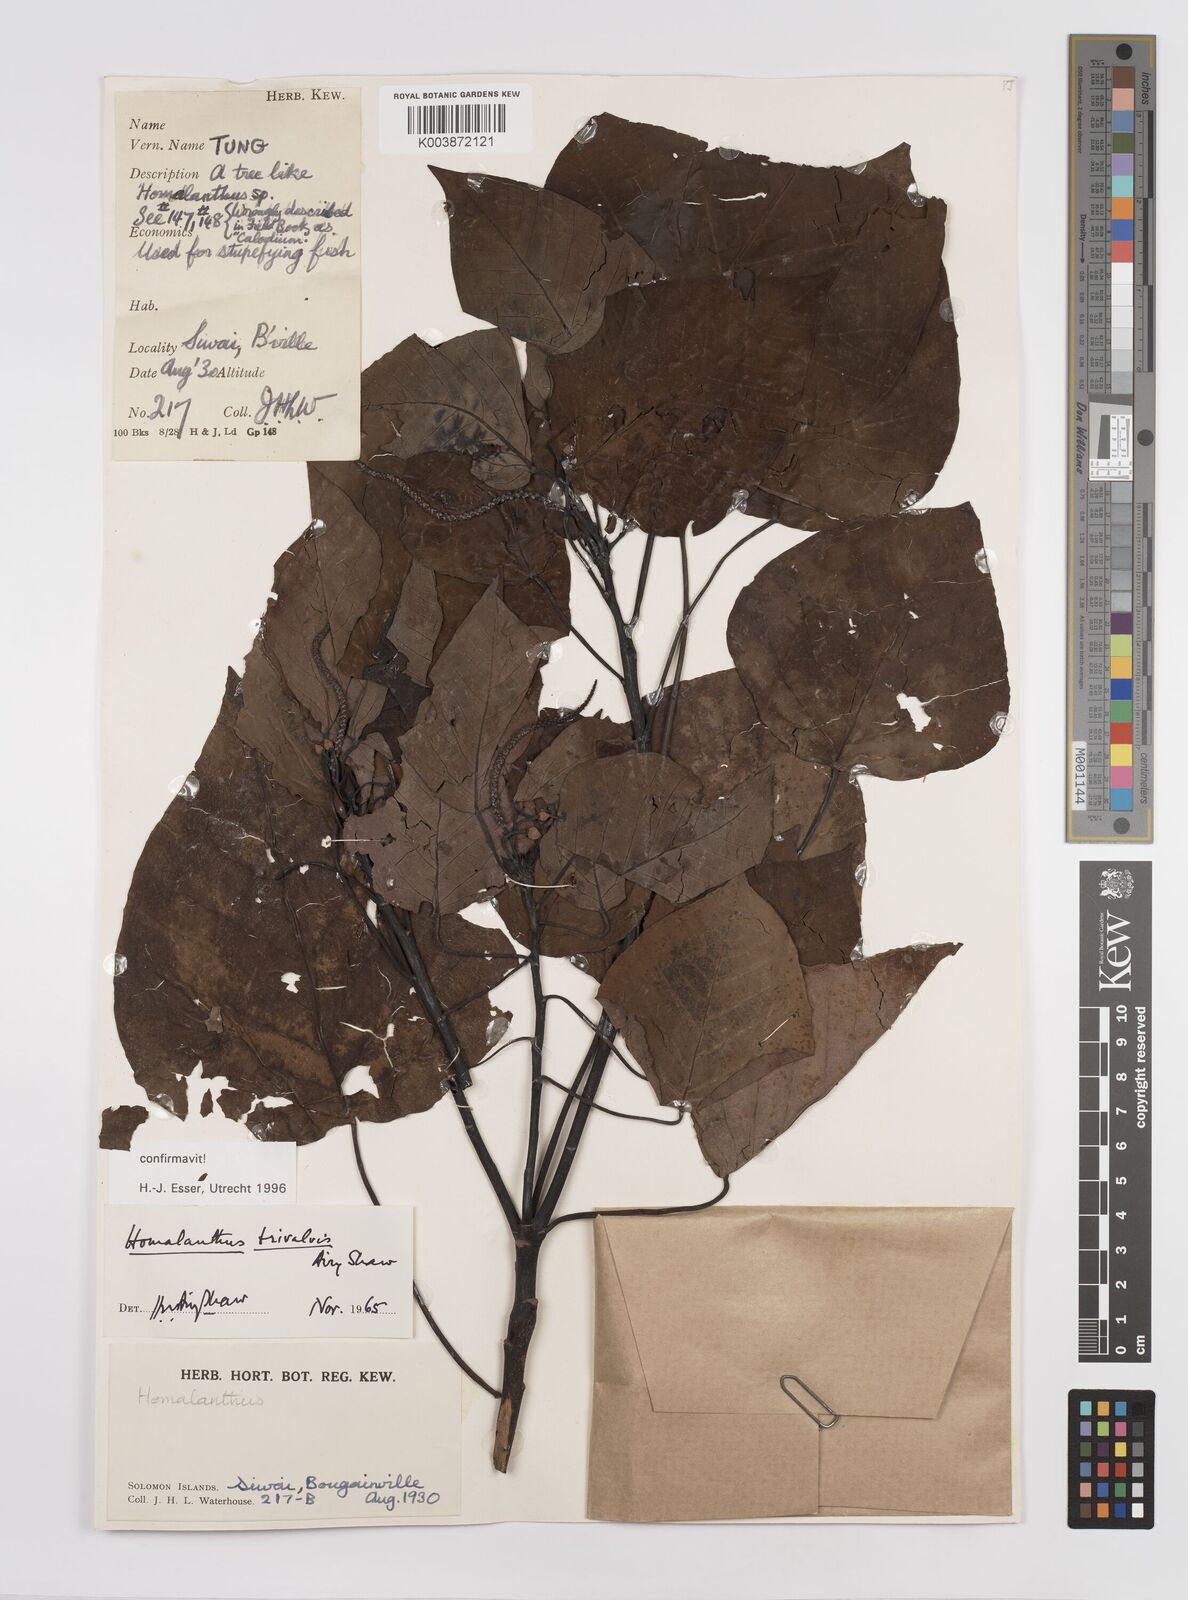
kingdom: Plantae
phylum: Tracheophyta
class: Magnoliopsida
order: Malpighiales
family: Euphorbiaceae
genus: Homalanthus
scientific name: Homalanthus trivalvis
